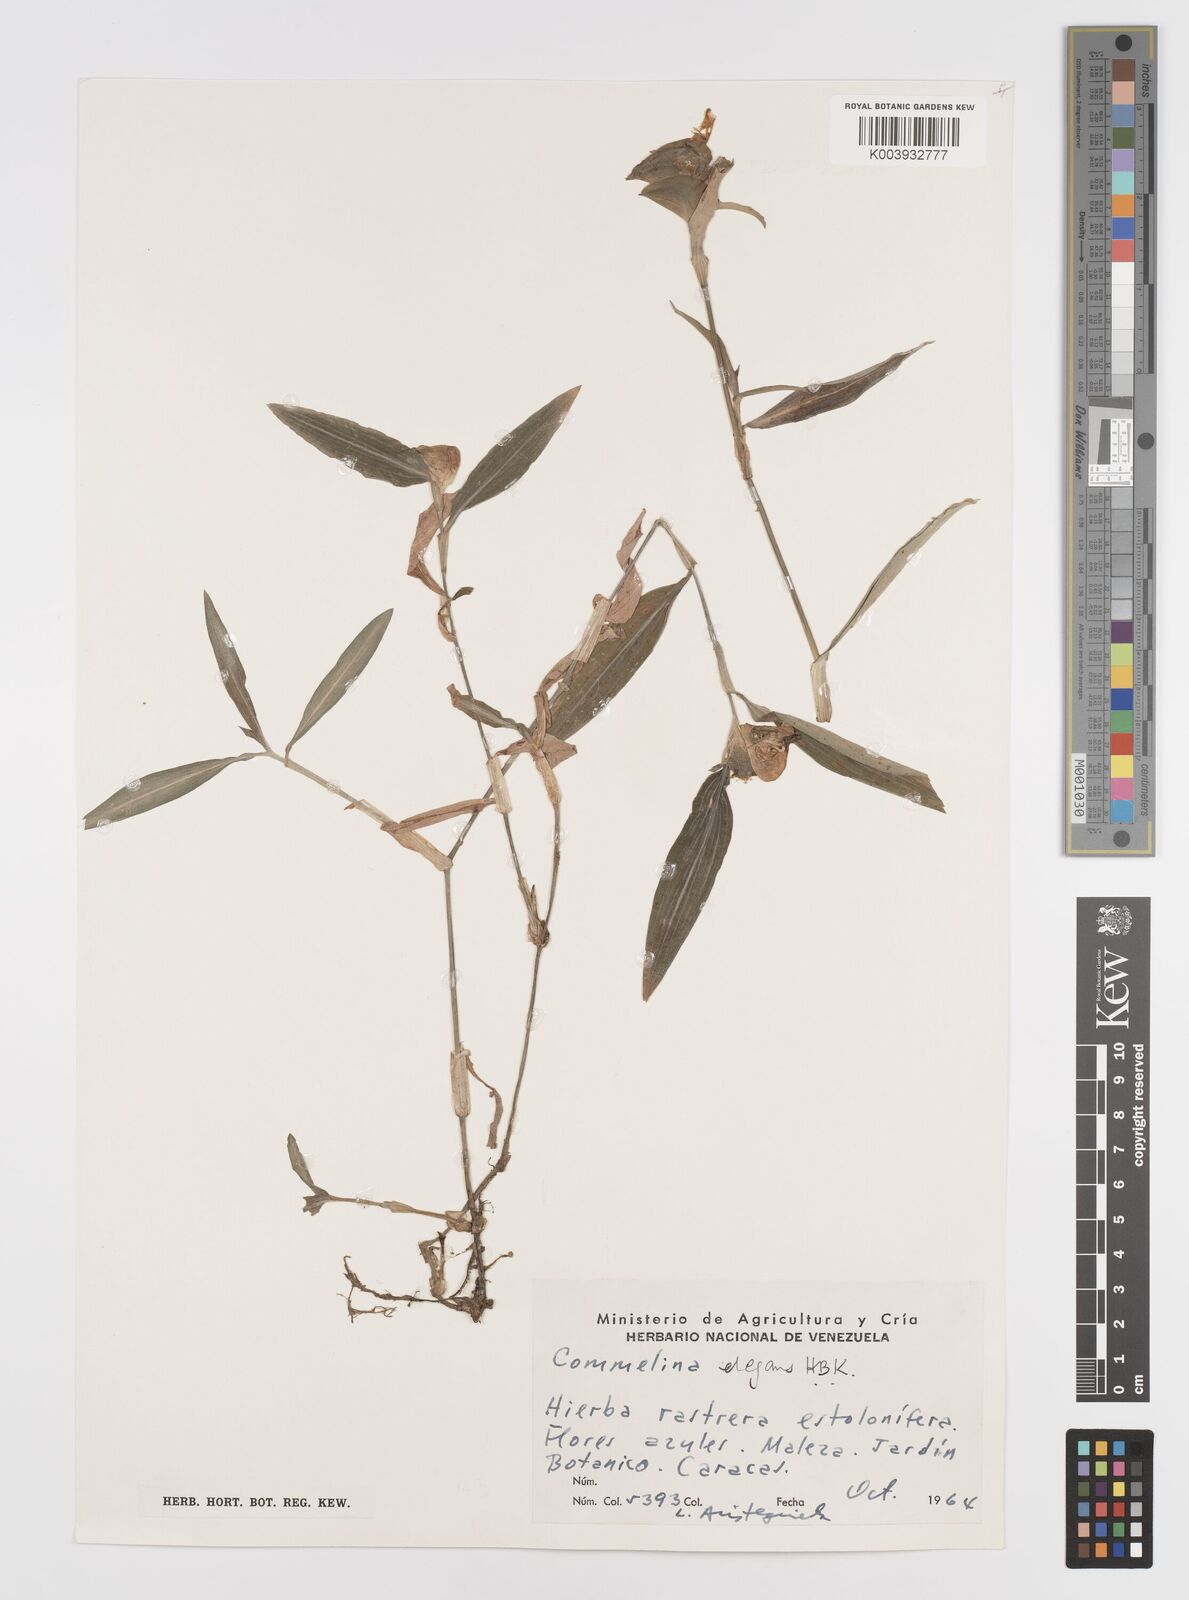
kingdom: Plantae
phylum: Tracheophyta
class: Liliopsida
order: Commelinales
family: Commelinaceae
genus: Commelina
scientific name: Commelina virginica
